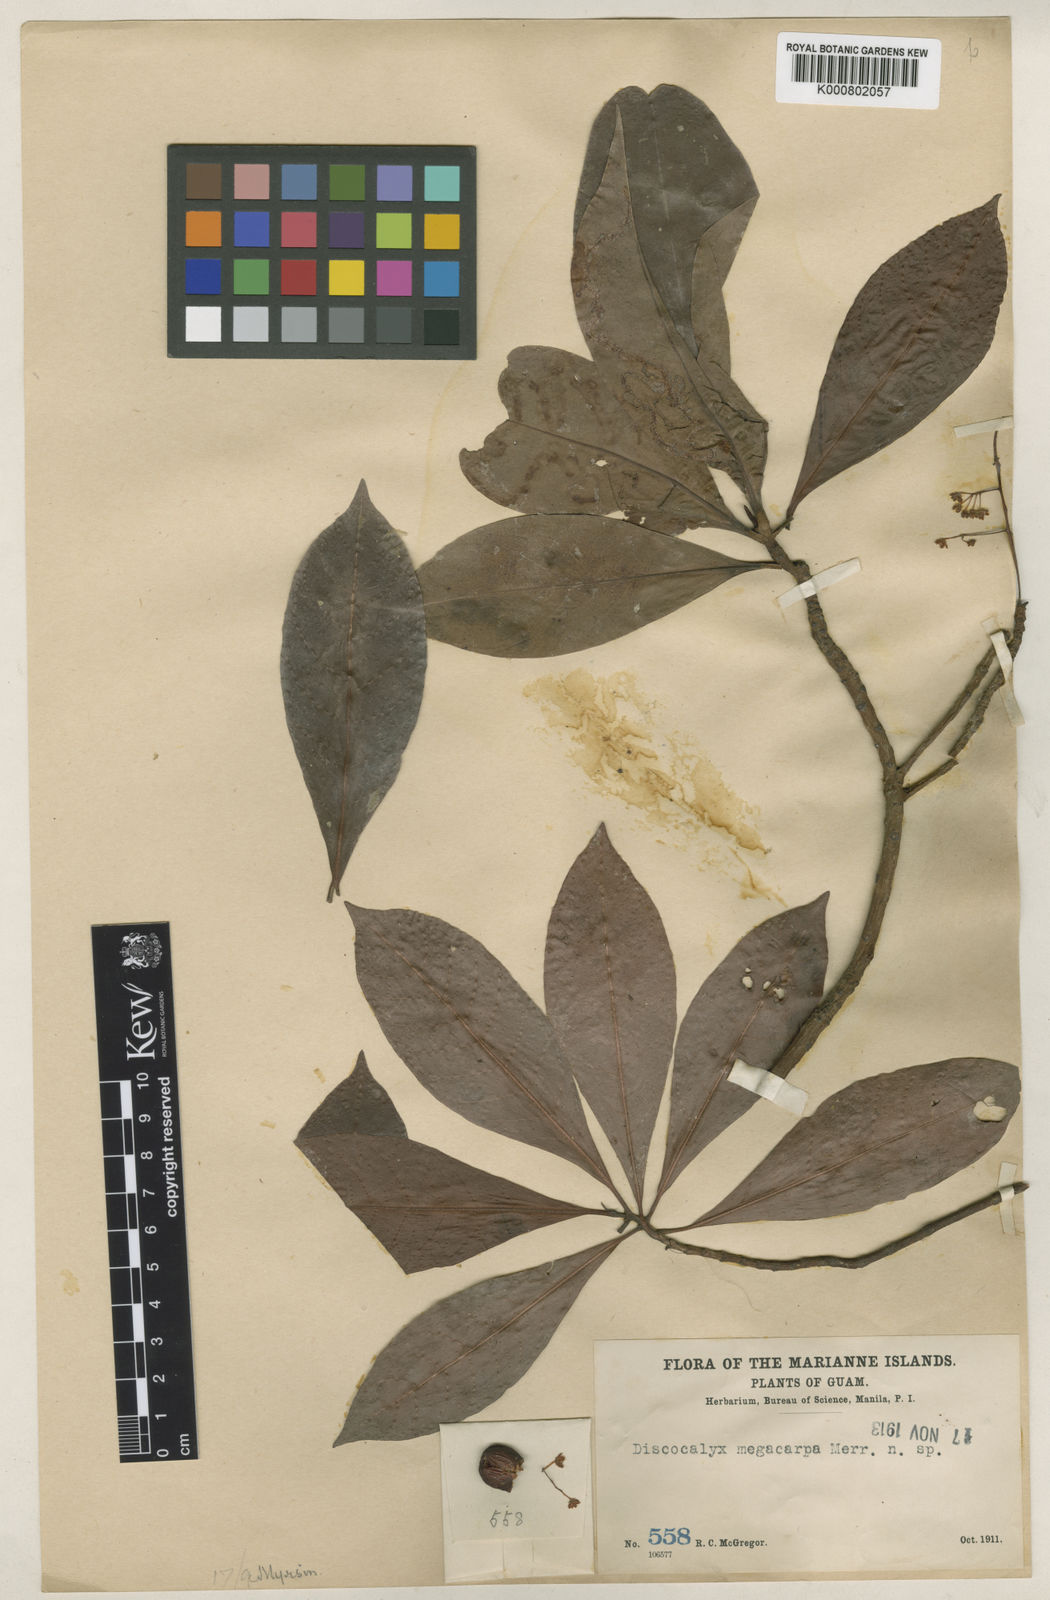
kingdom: Plantae
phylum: Tracheophyta
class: Magnoliopsida
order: Ericales
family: Primulaceae
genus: Discocalyx
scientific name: Discocalyx megacarpa
